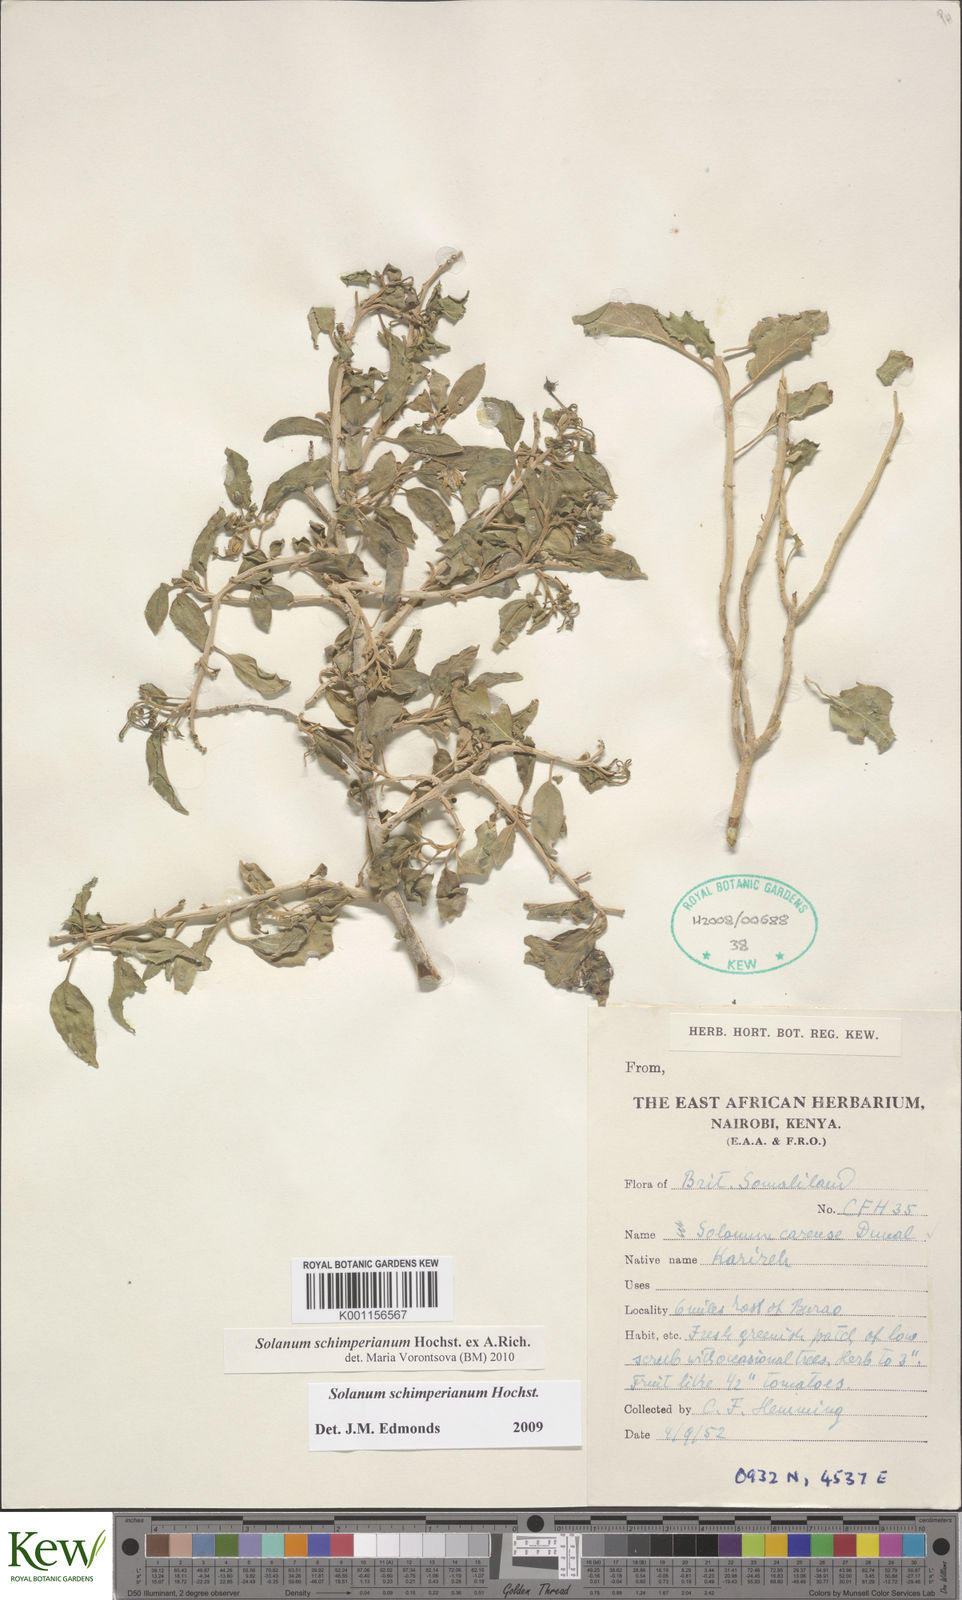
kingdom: Plantae
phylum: Tracheophyta
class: Magnoliopsida
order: Solanales
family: Solanaceae
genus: Solanum
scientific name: Solanum
